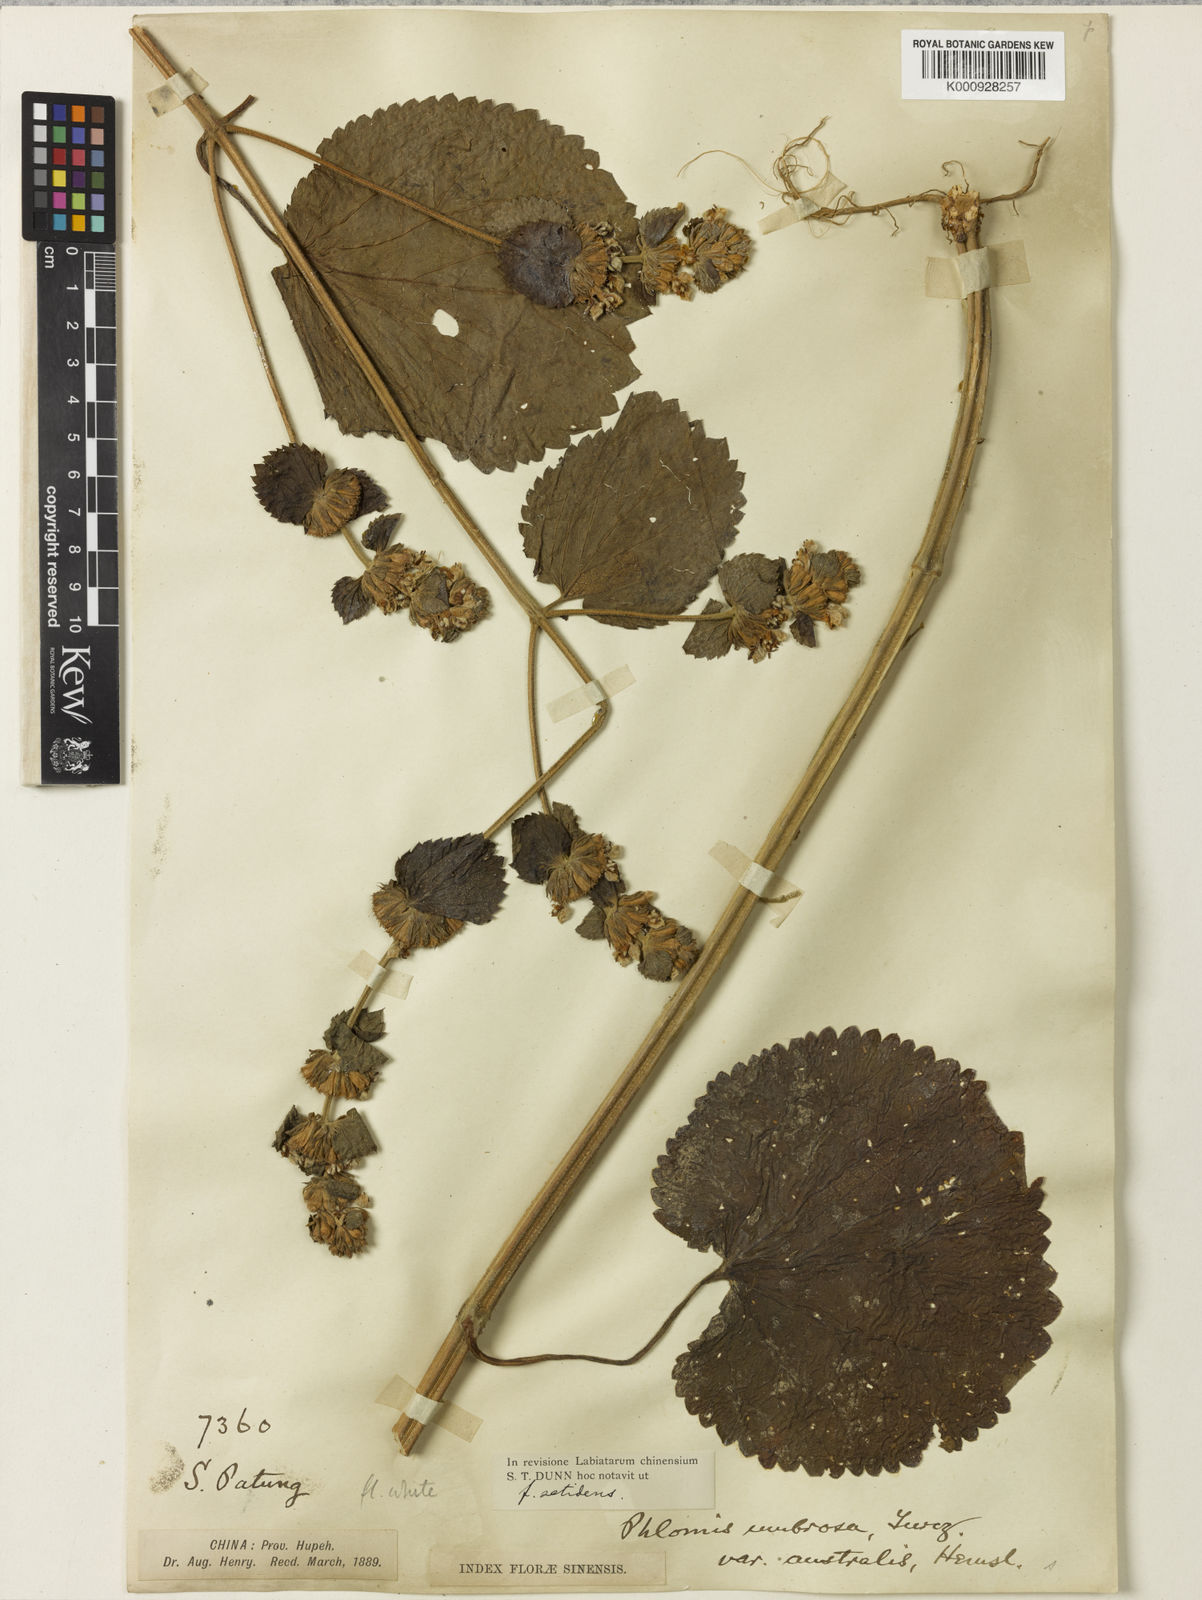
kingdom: Plantae
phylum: Tracheophyta
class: Magnoliopsida
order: Lamiales
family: Lamiaceae
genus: Phlomoides
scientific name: Phlomoides umbrosa
